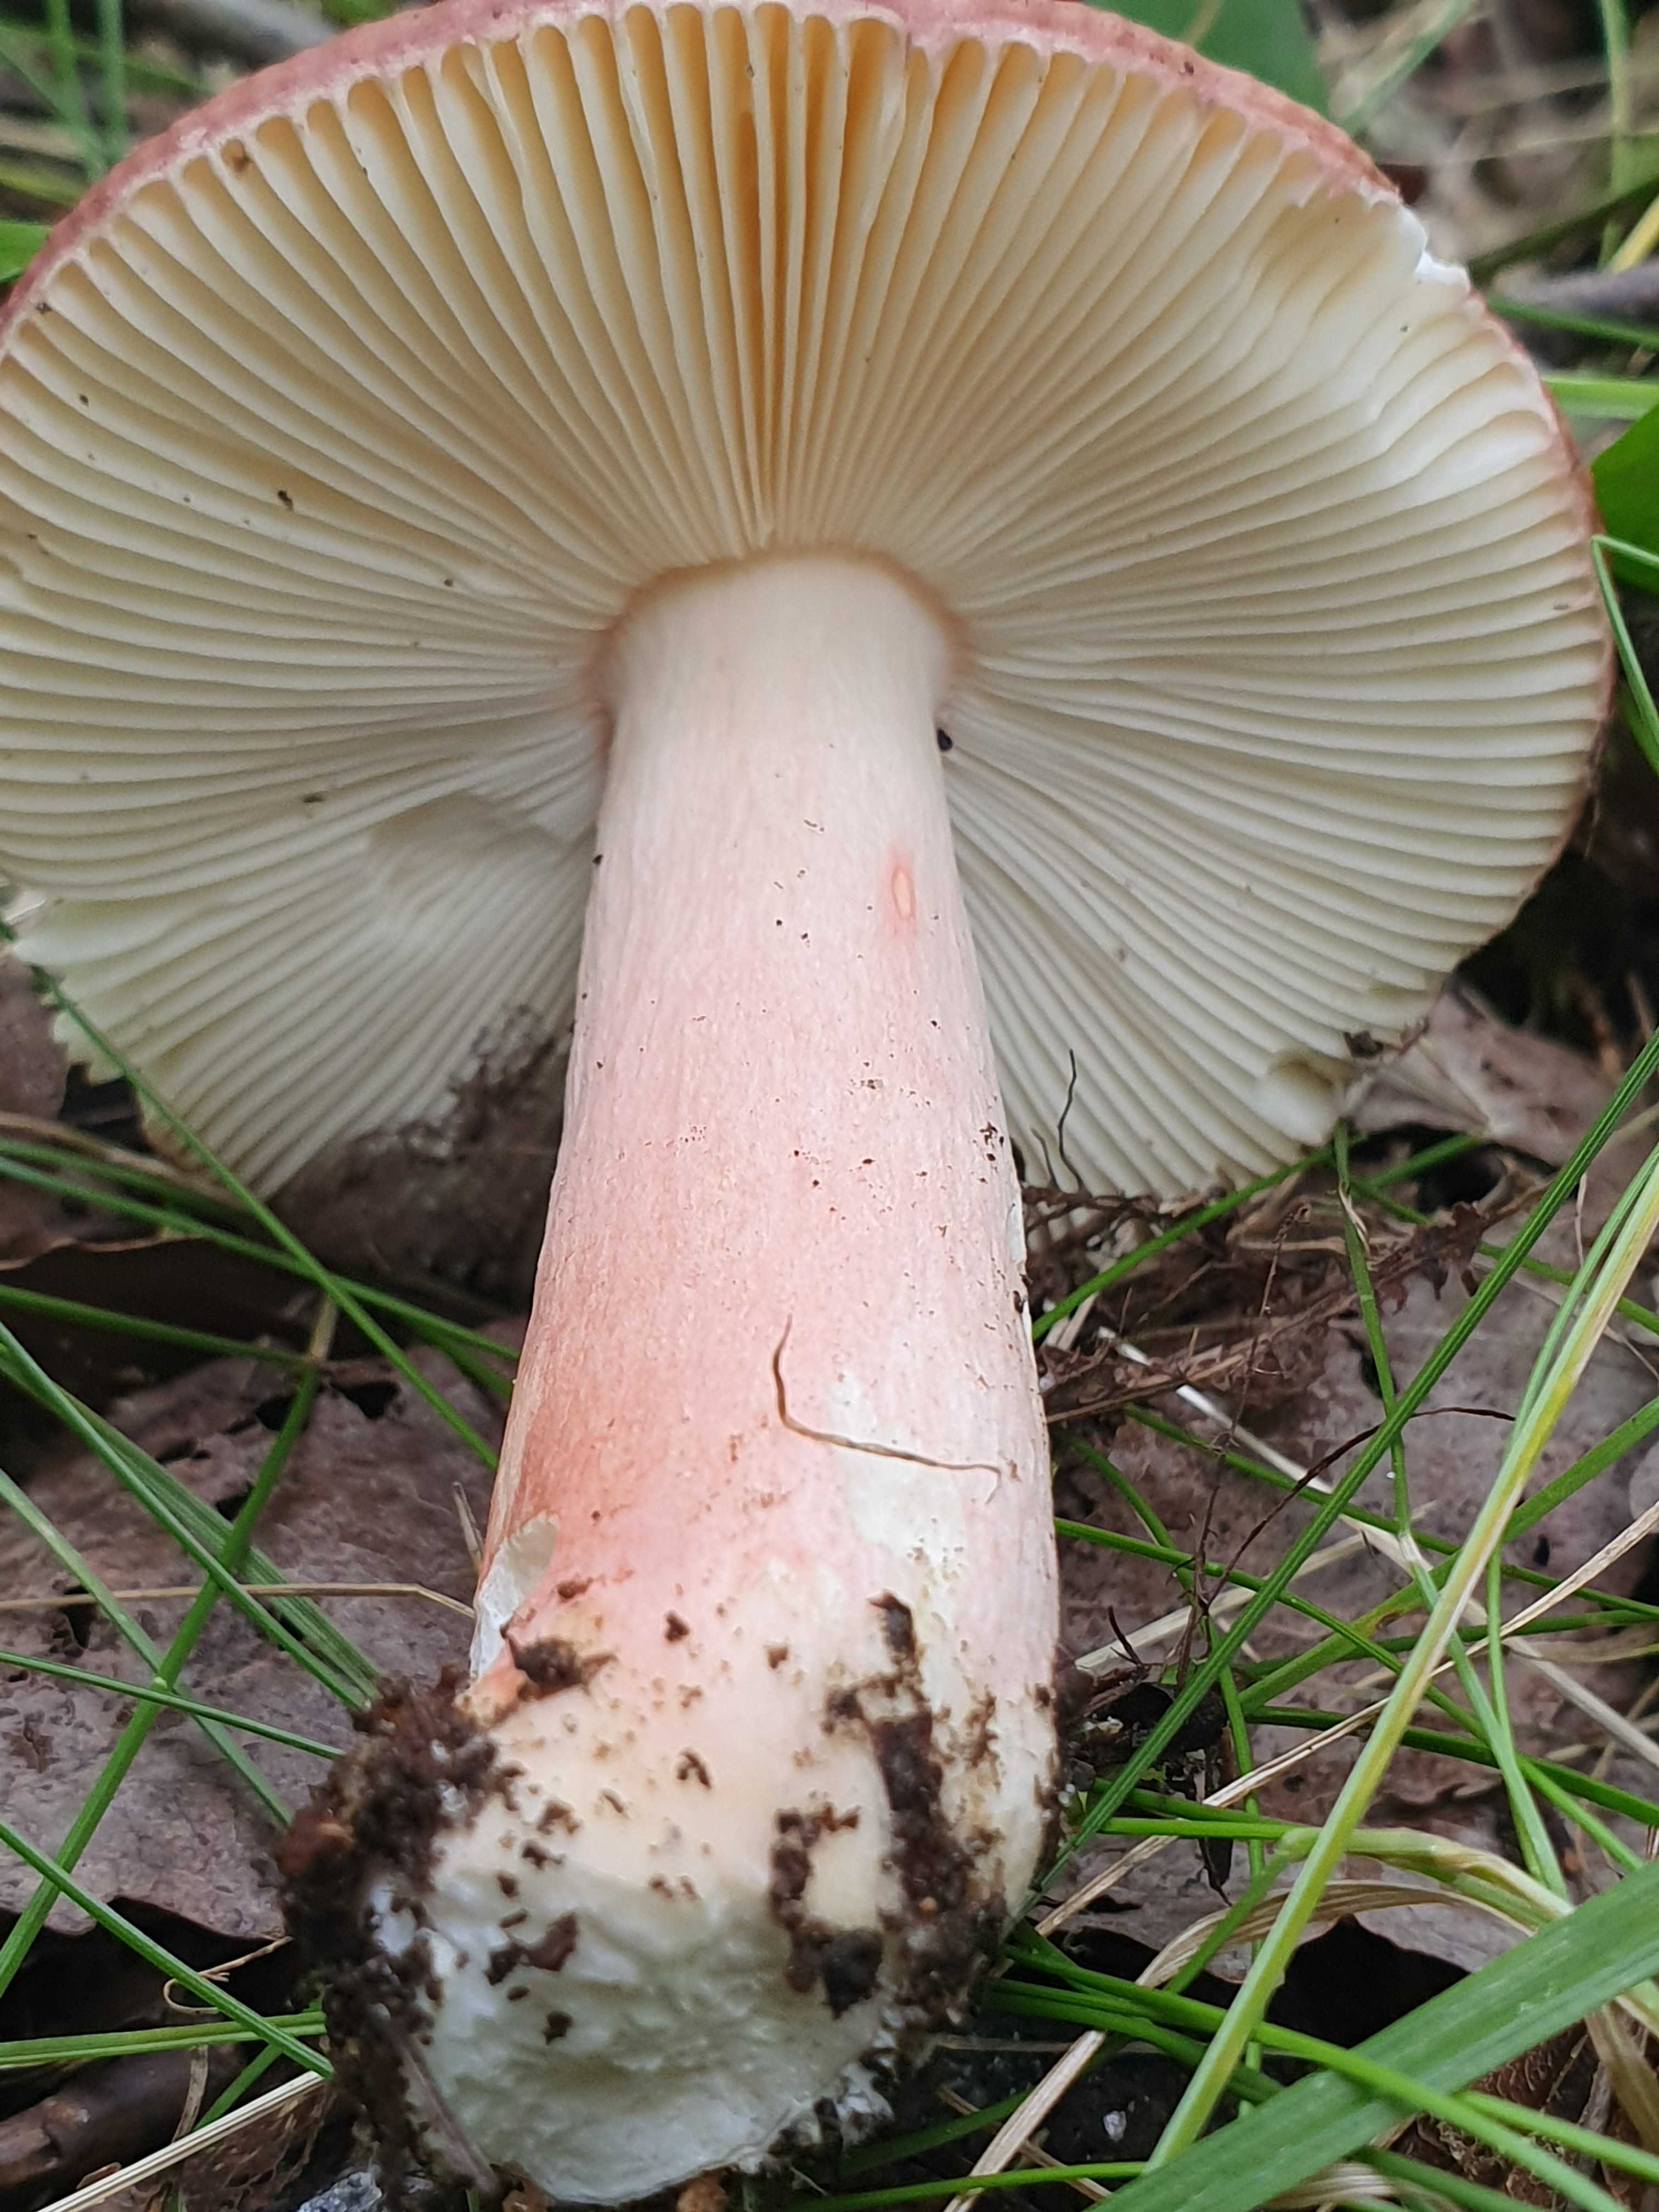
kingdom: Fungi
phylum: Basidiomycota
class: Agaricomycetes
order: Russulales
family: Russulaceae
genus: Russula
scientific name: Russula
